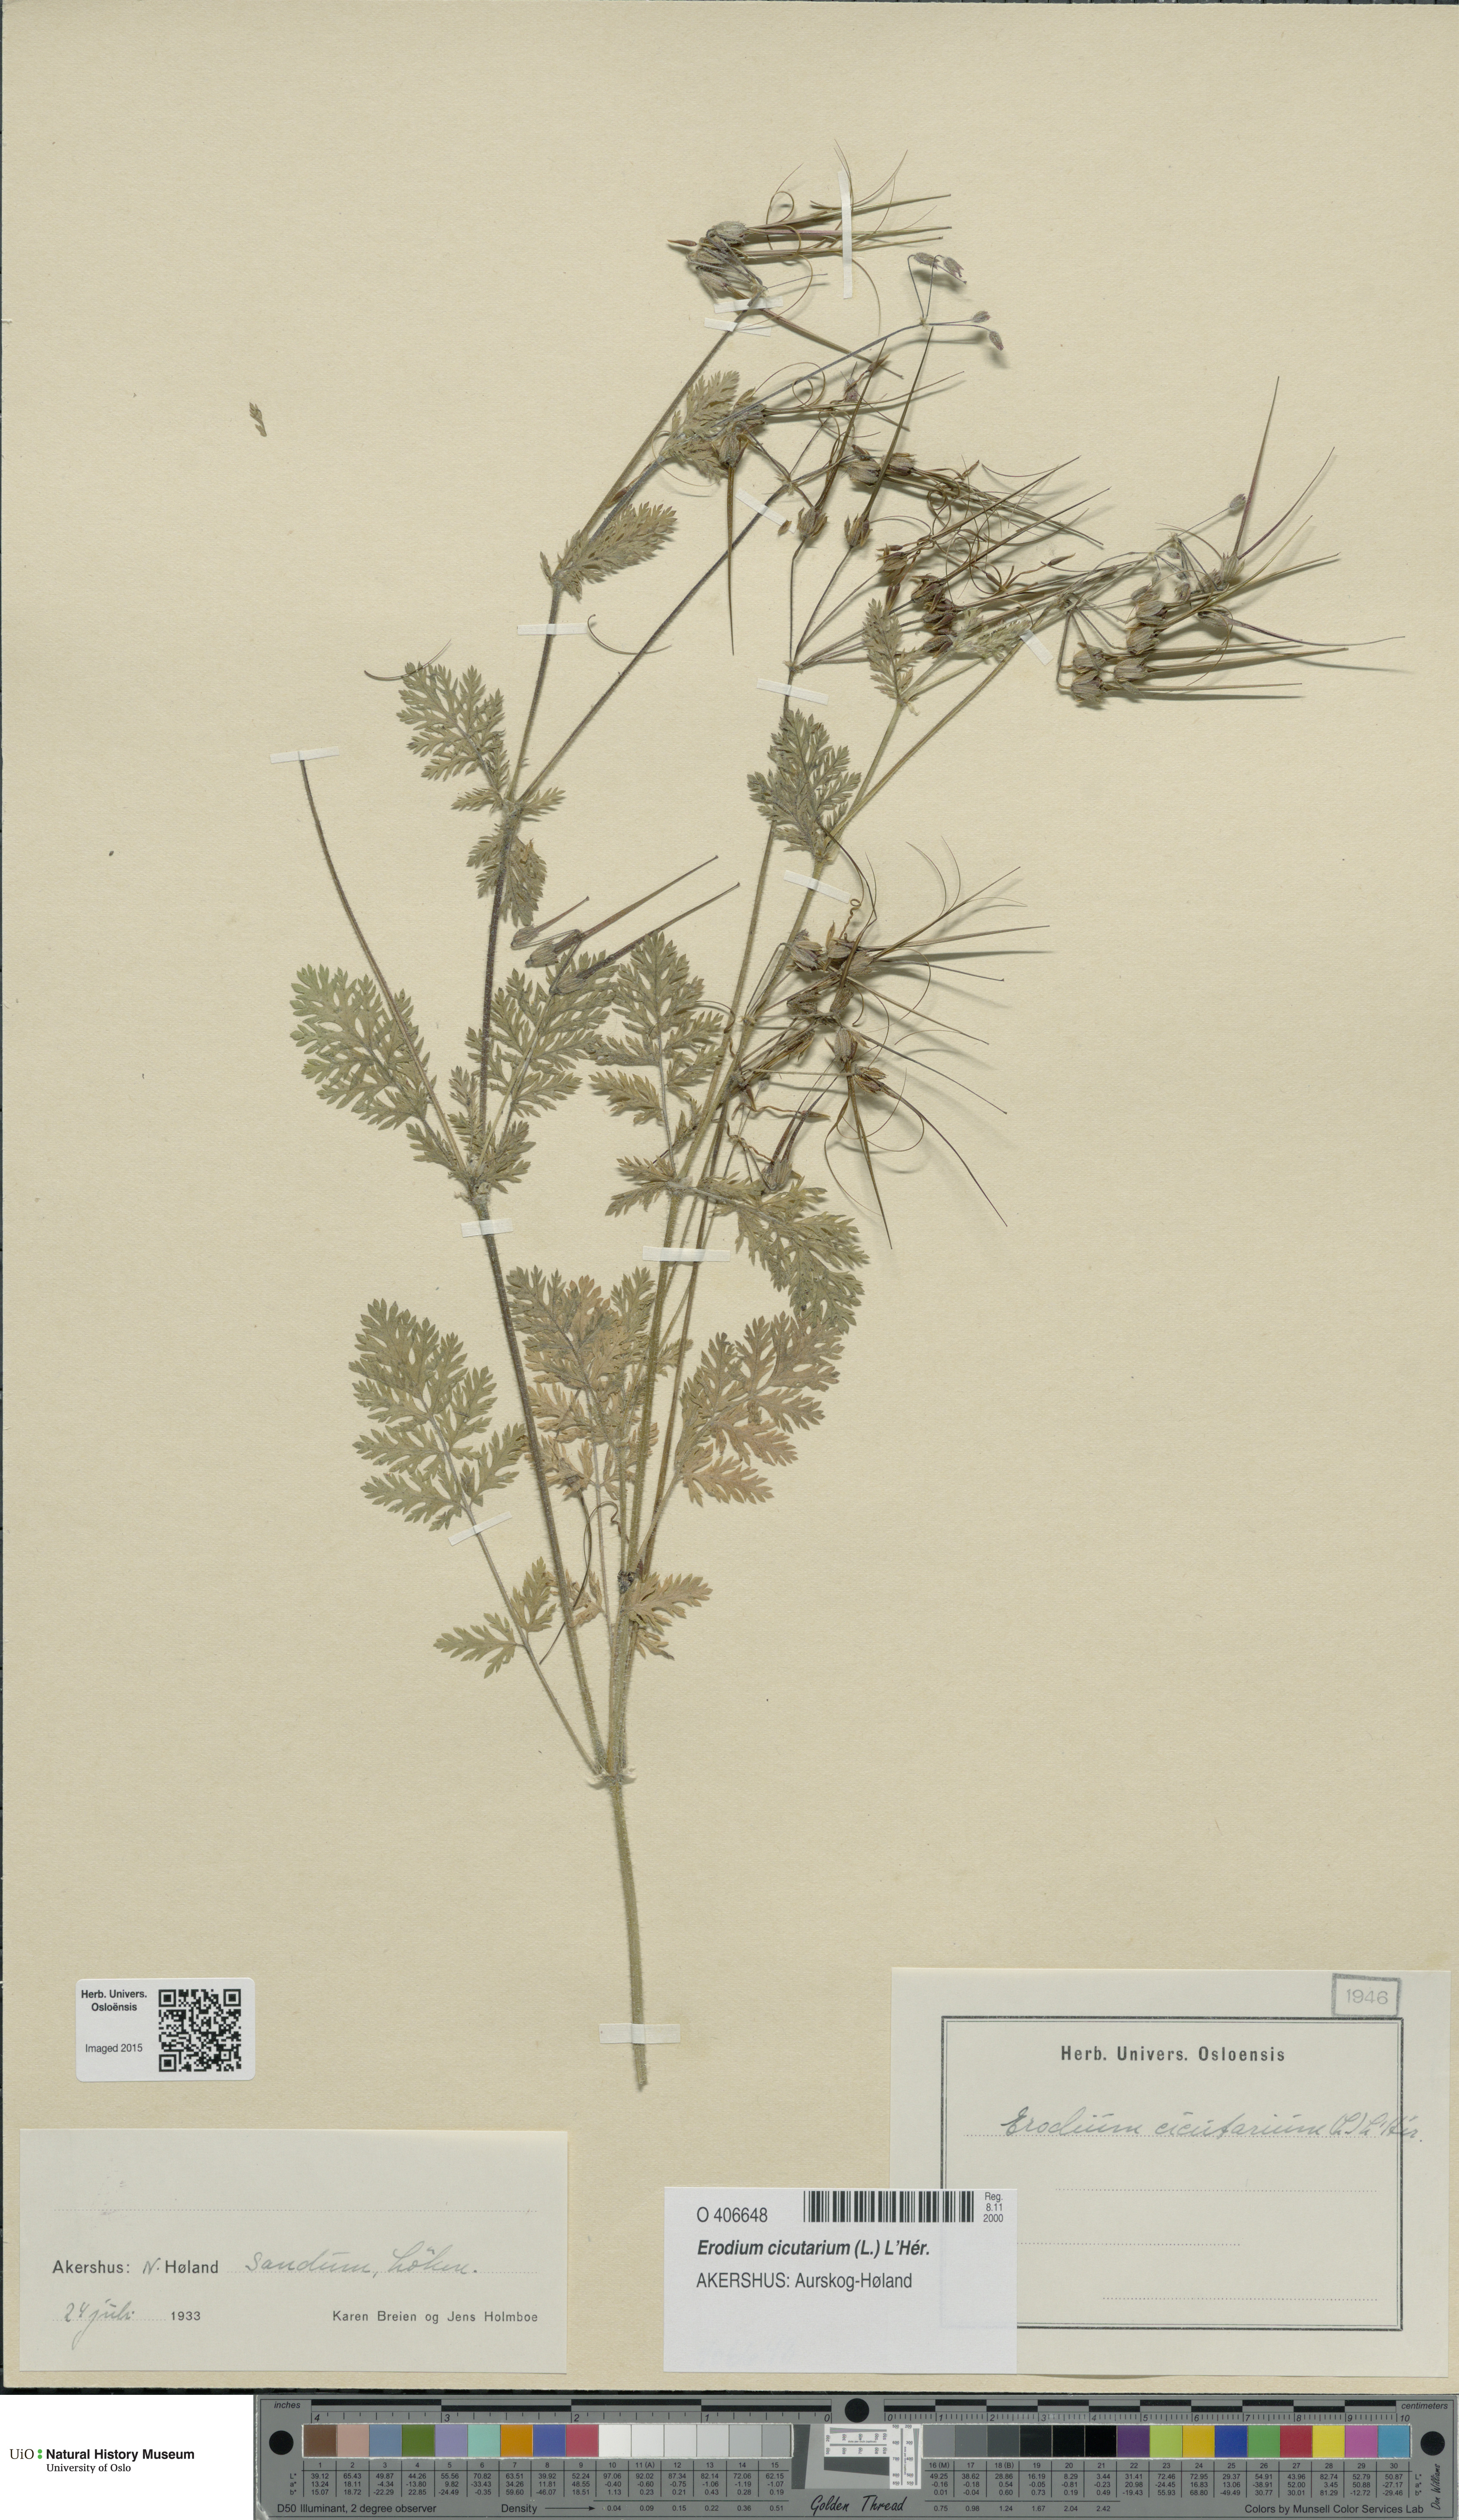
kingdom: Plantae
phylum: Tracheophyta
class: Magnoliopsida
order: Geraniales
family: Geraniaceae
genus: Erodium
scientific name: Erodium cicutarium
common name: Common stork's-bill
